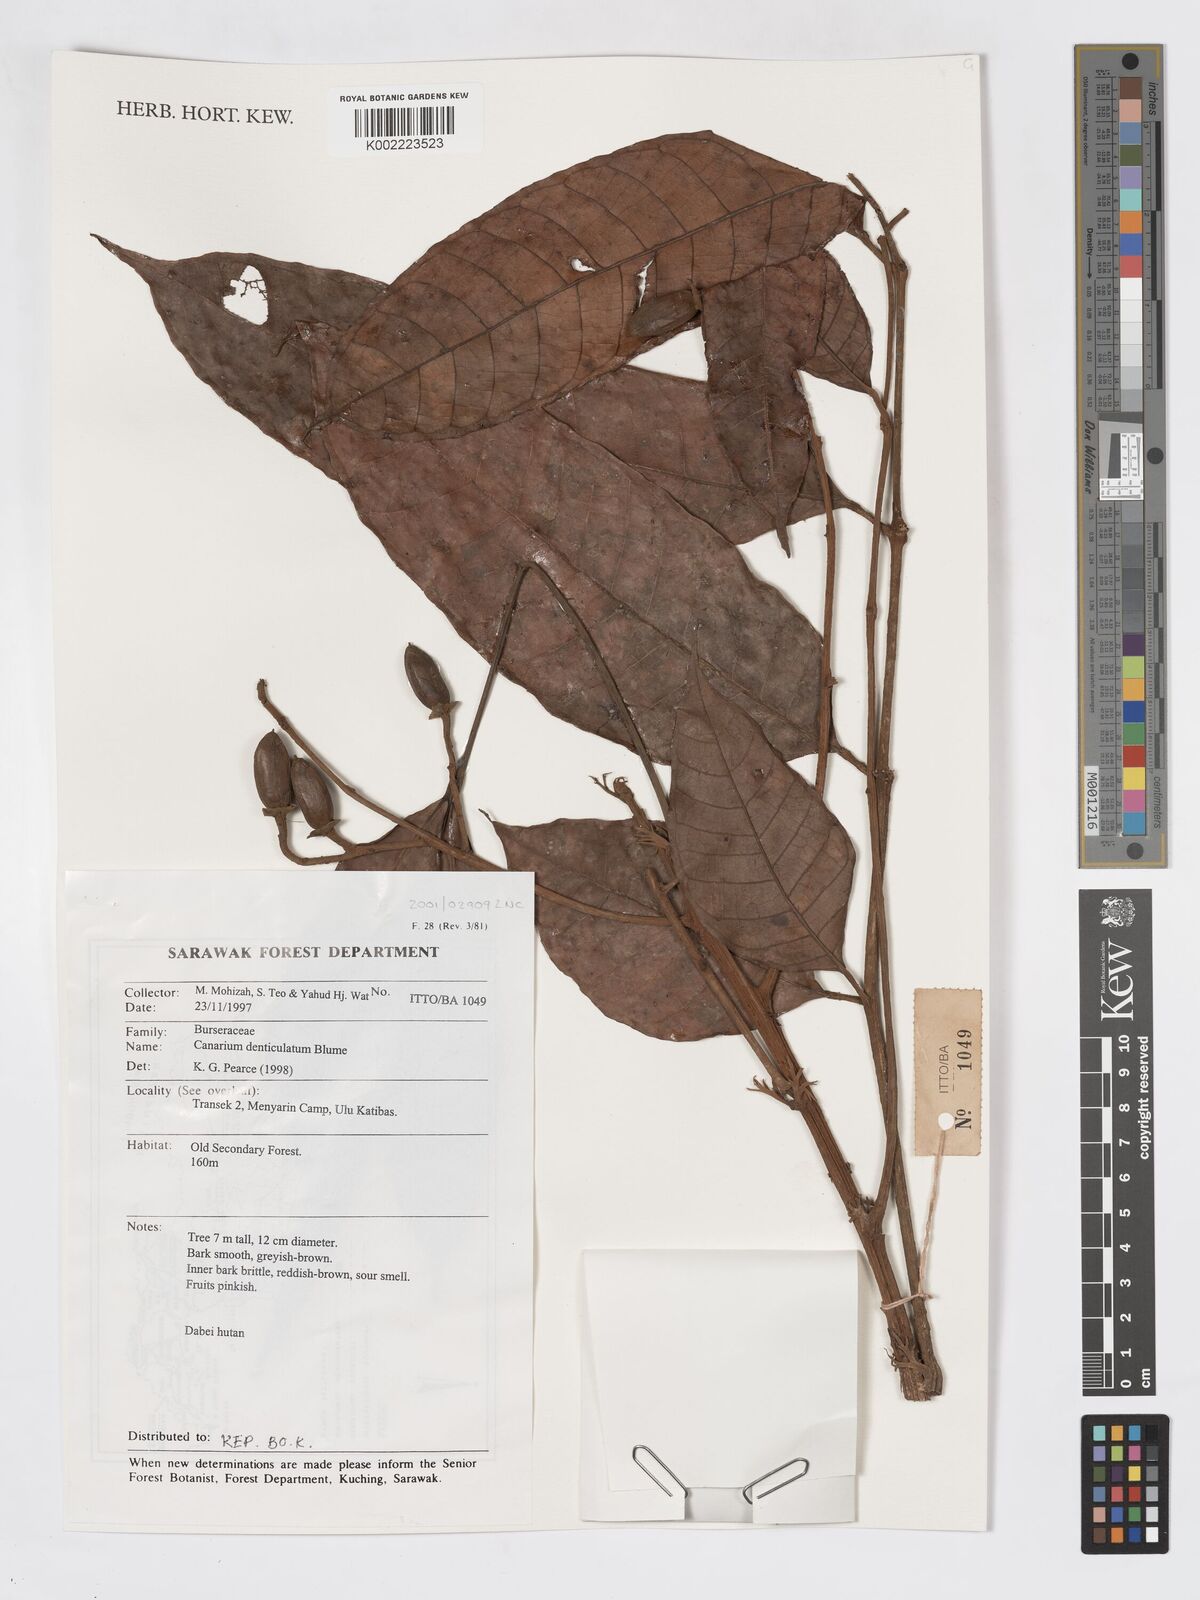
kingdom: Plantae
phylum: Tracheophyta
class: Magnoliopsida
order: Sapindales
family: Burseraceae
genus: Canarium
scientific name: Canarium denticulatum
